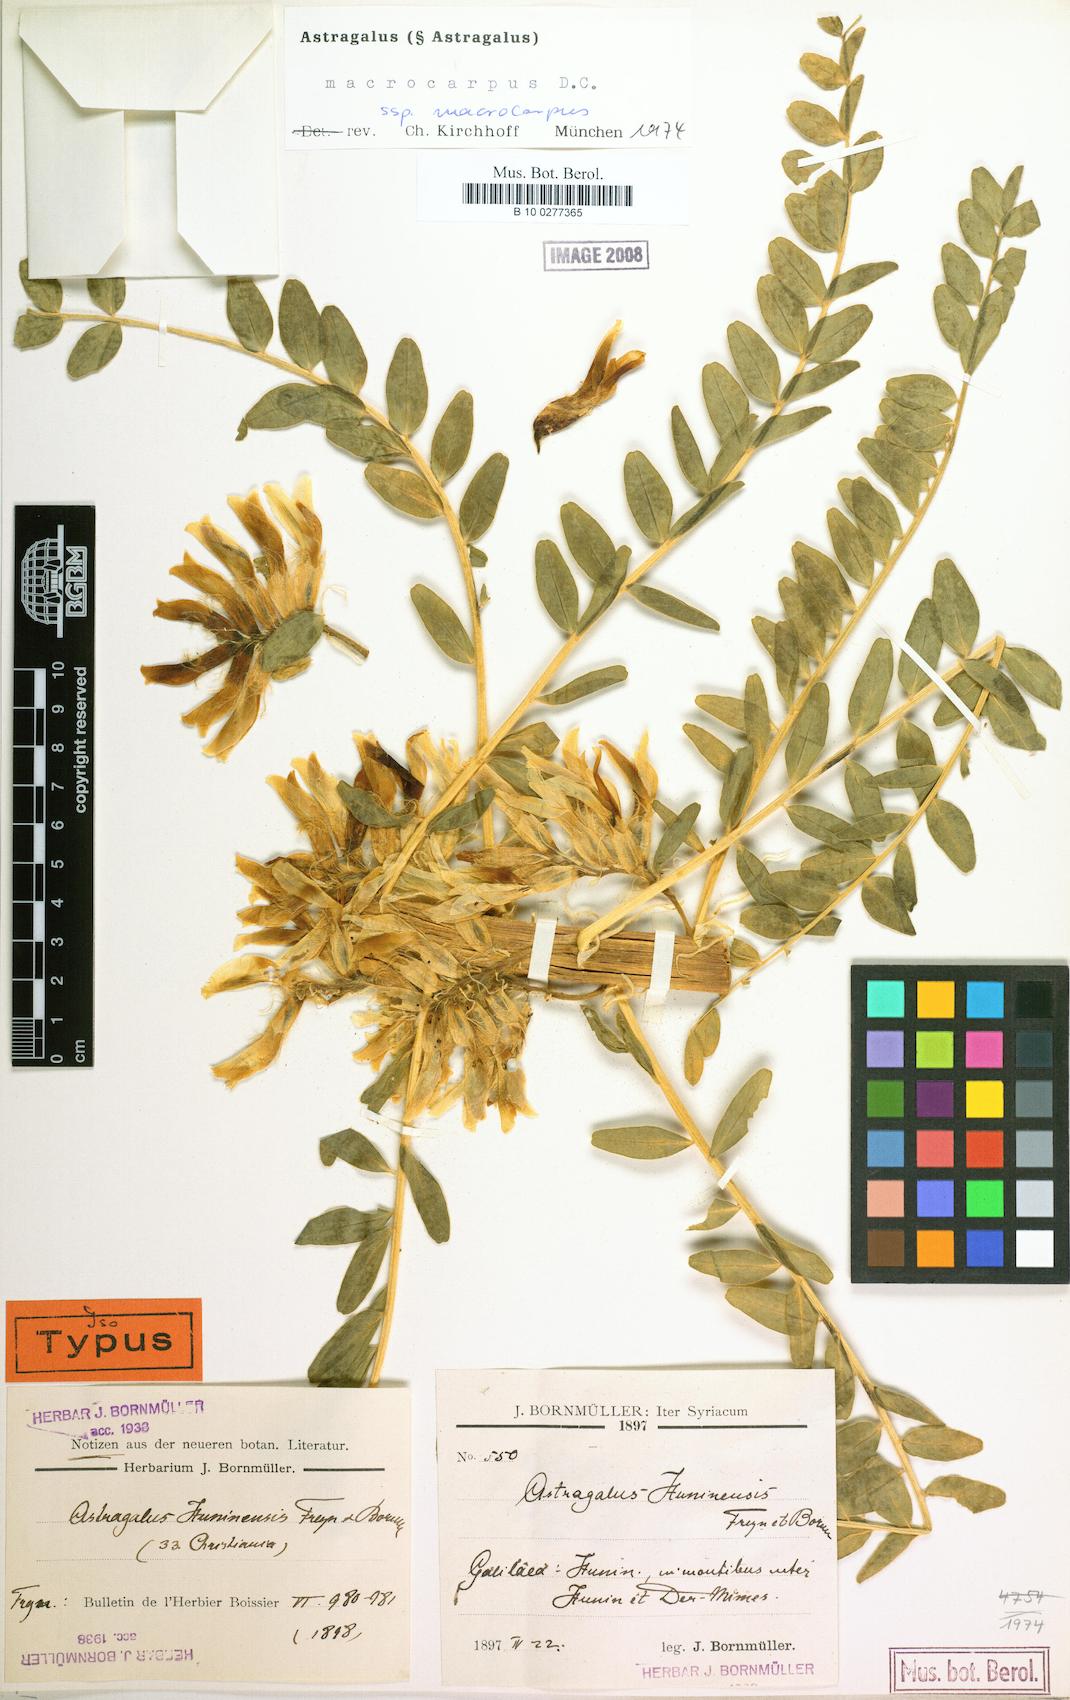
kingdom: Plantae
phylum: Tracheophyta
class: Magnoliopsida
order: Fabales
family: Fabaceae
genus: Astragalus
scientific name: Astragalus macrocarpus
